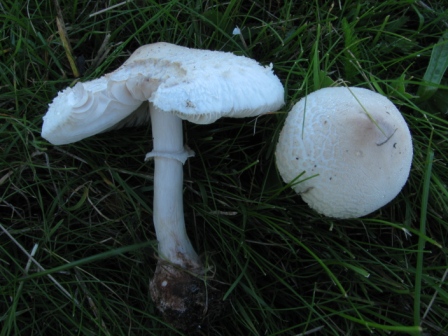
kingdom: Fungi
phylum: Basidiomycota
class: Agaricomycetes
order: Agaricales
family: Agaricaceae
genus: Macrolepiota
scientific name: Macrolepiota excoriata
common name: mark-kæmpeparasolhat
